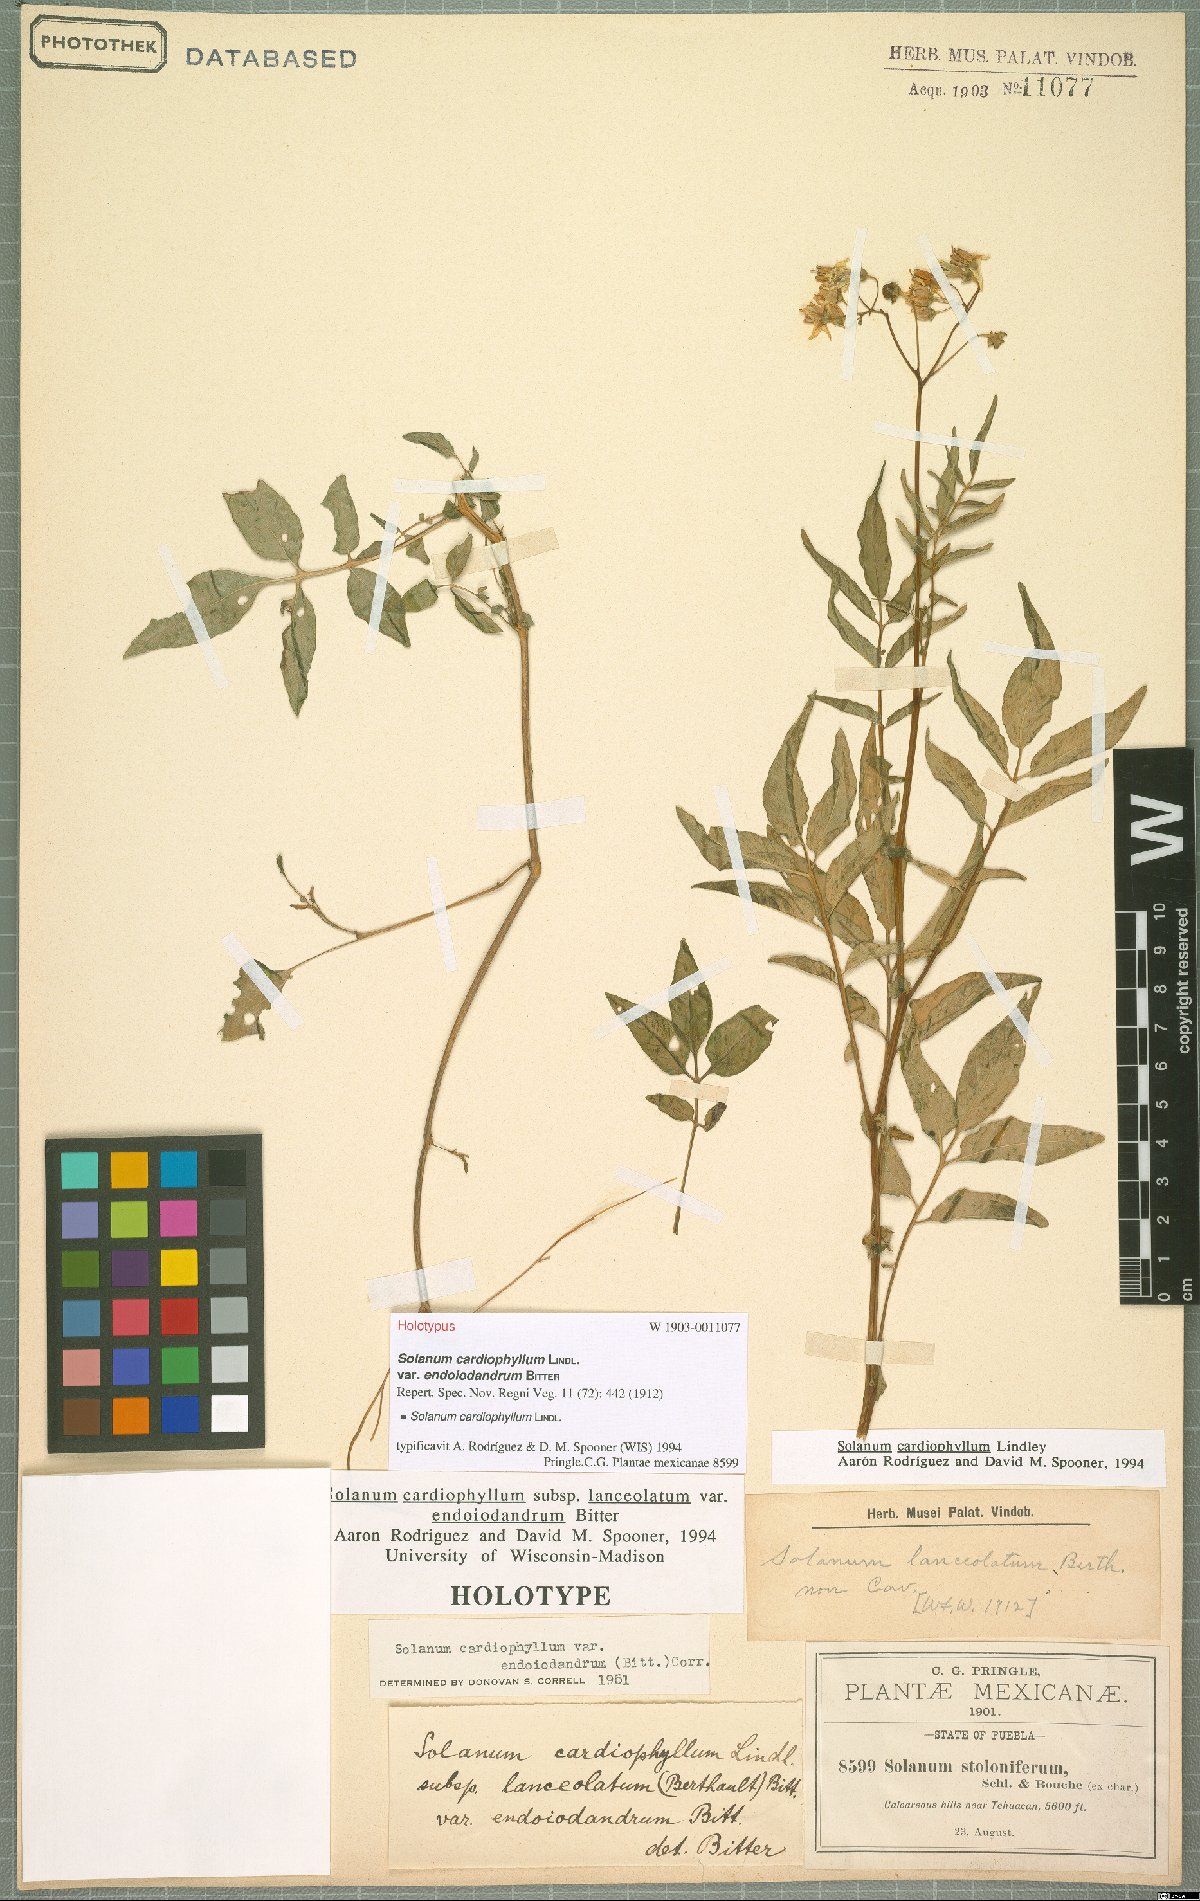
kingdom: Plantae
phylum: Tracheophyta
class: Magnoliopsida
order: Solanales
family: Solanaceae
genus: Solanum
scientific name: Solanum cardiophyllum
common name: Heartleaf horsenettle
